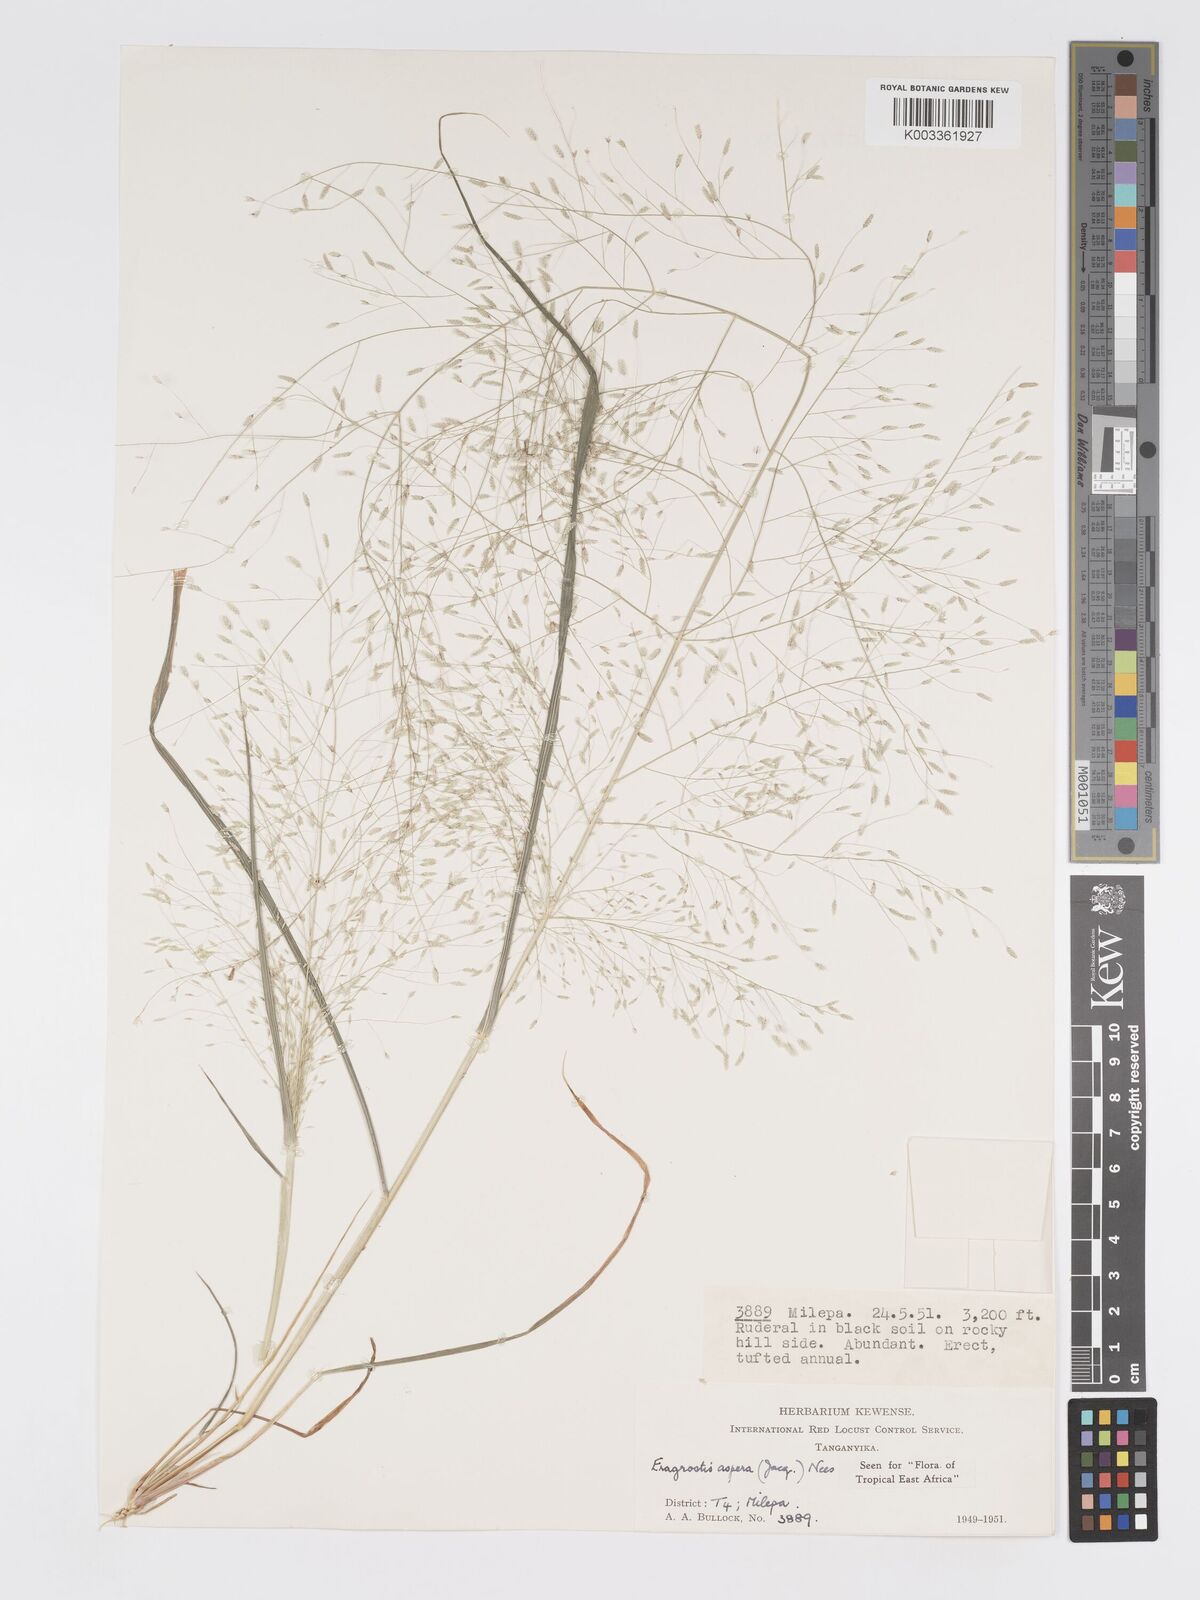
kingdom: Plantae
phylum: Tracheophyta
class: Liliopsida
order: Poales
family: Poaceae
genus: Eragrostis
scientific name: Eragrostis aspera
